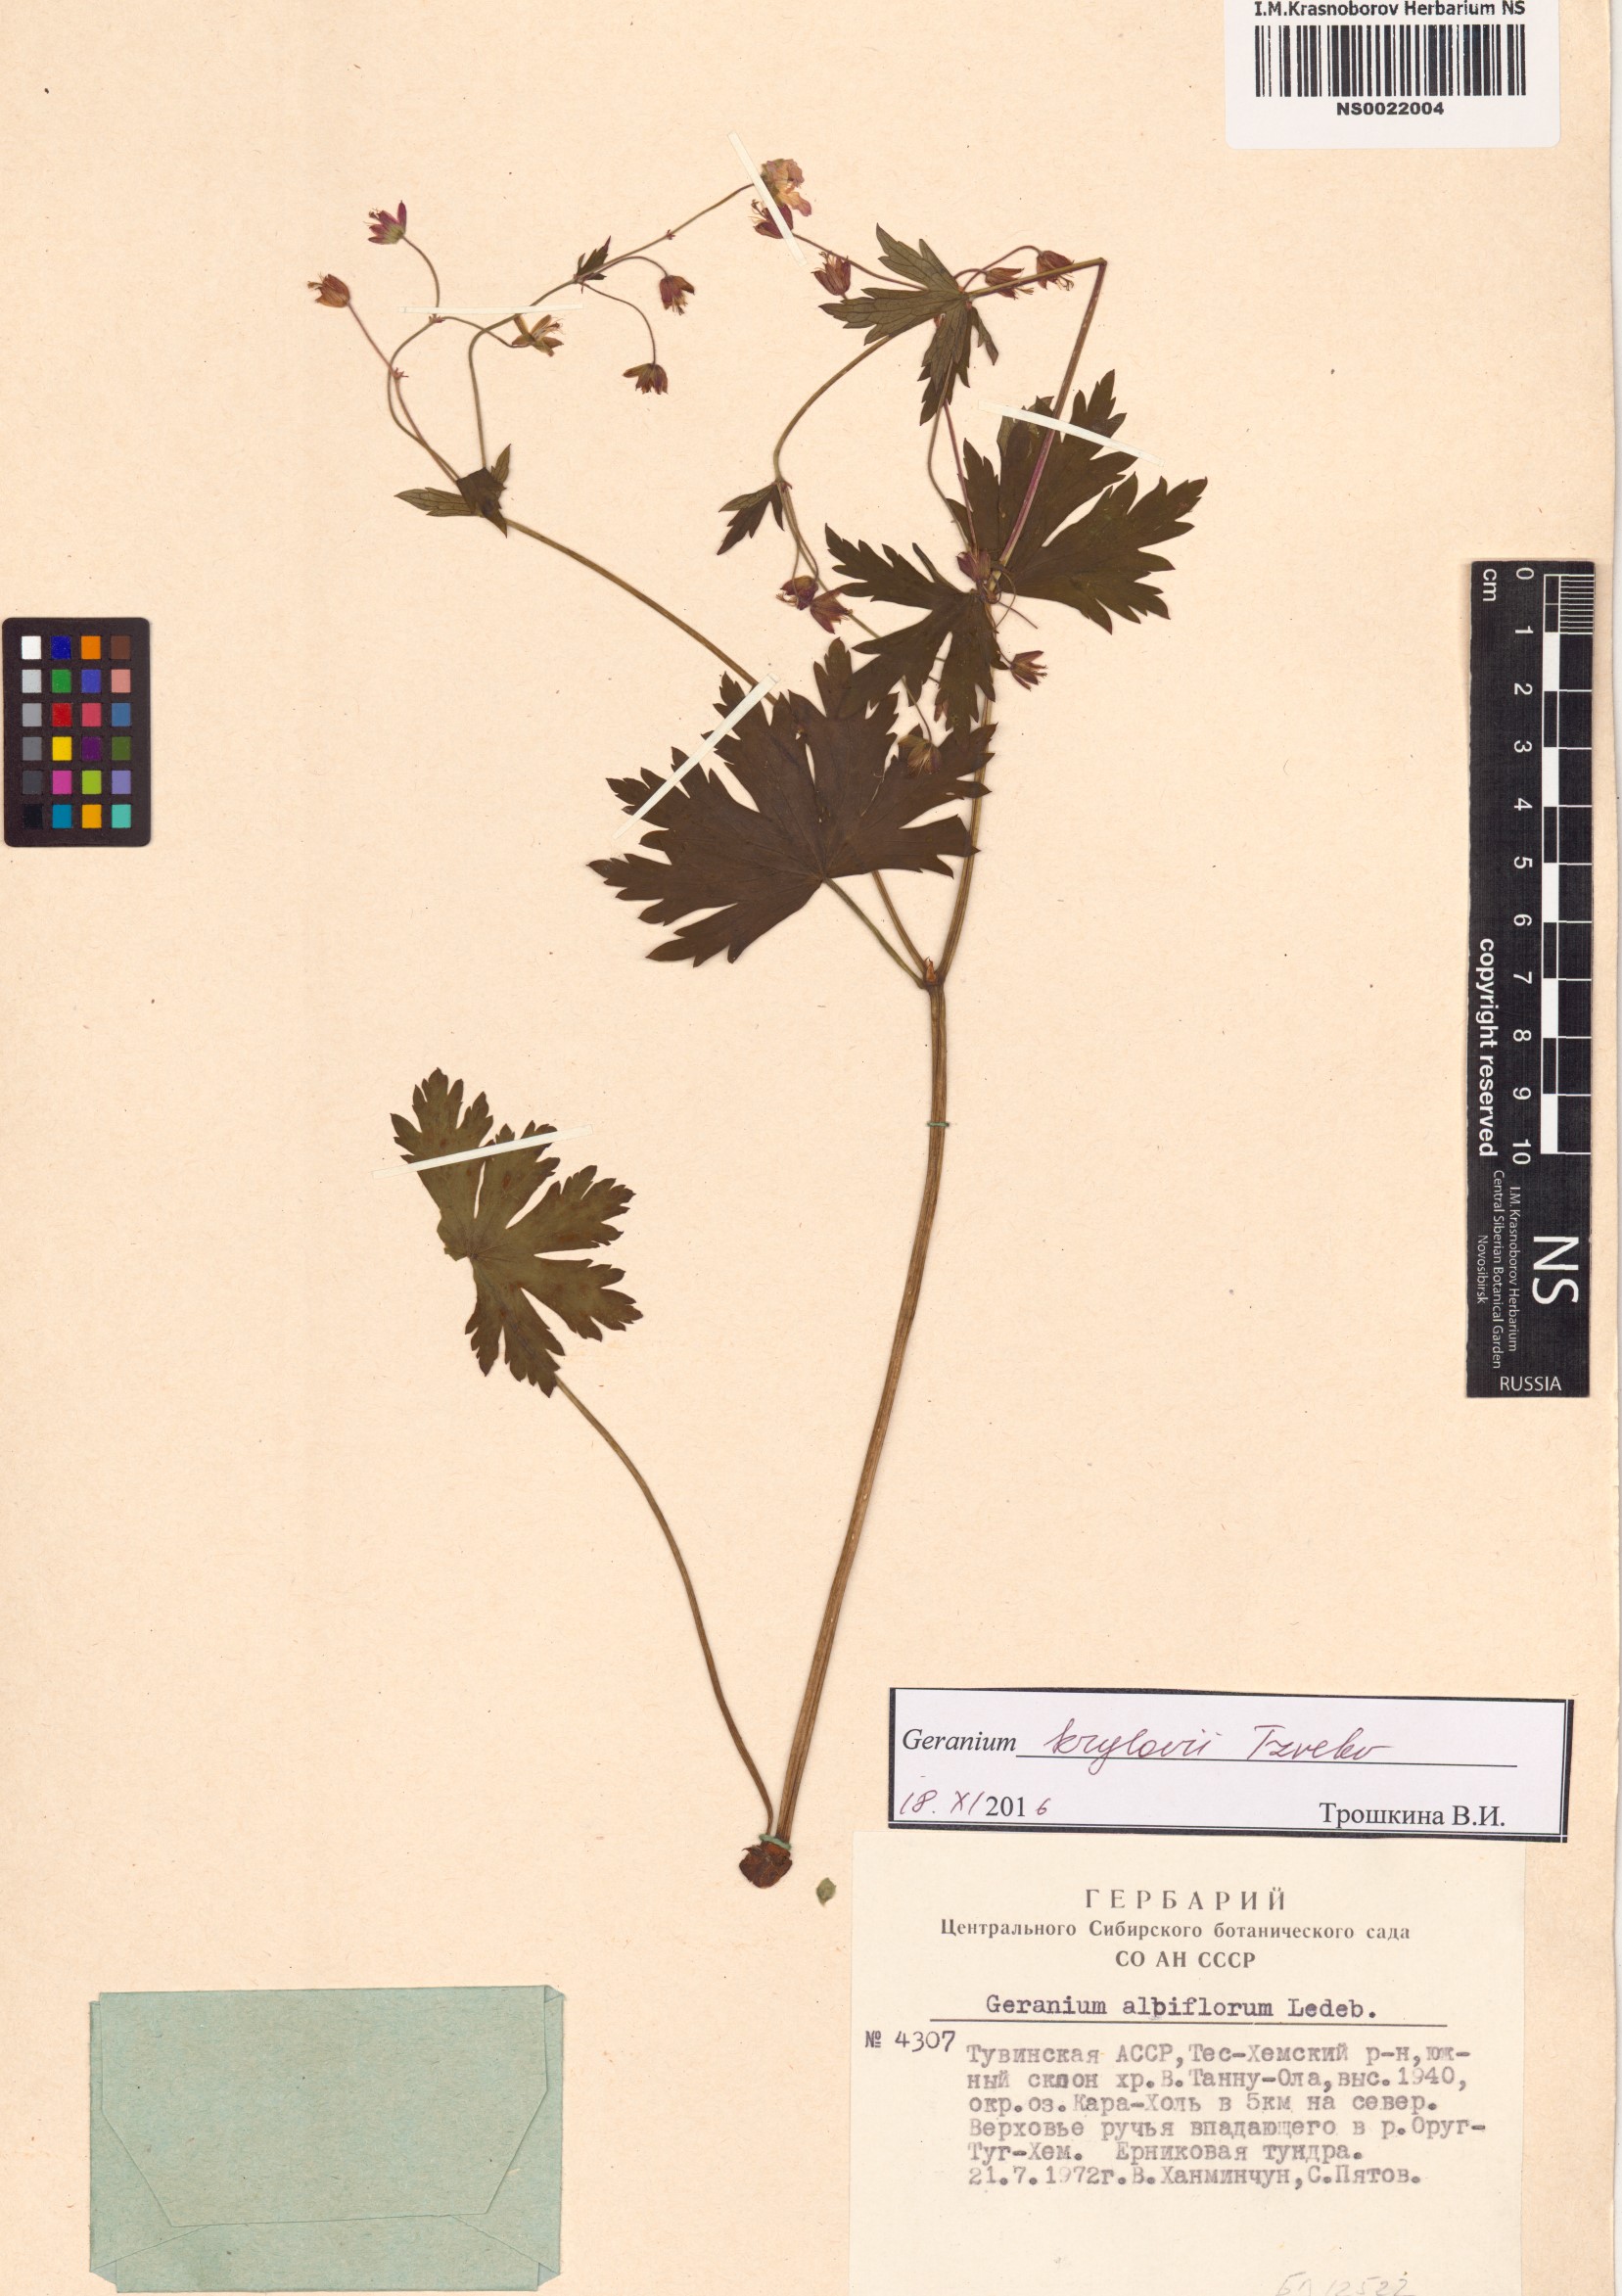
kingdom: Plantae
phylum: Tracheophyta
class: Magnoliopsida
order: Geraniales
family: Geraniaceae
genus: Geranium
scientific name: Geranium sylvaticum
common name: Wood crane's-bill
